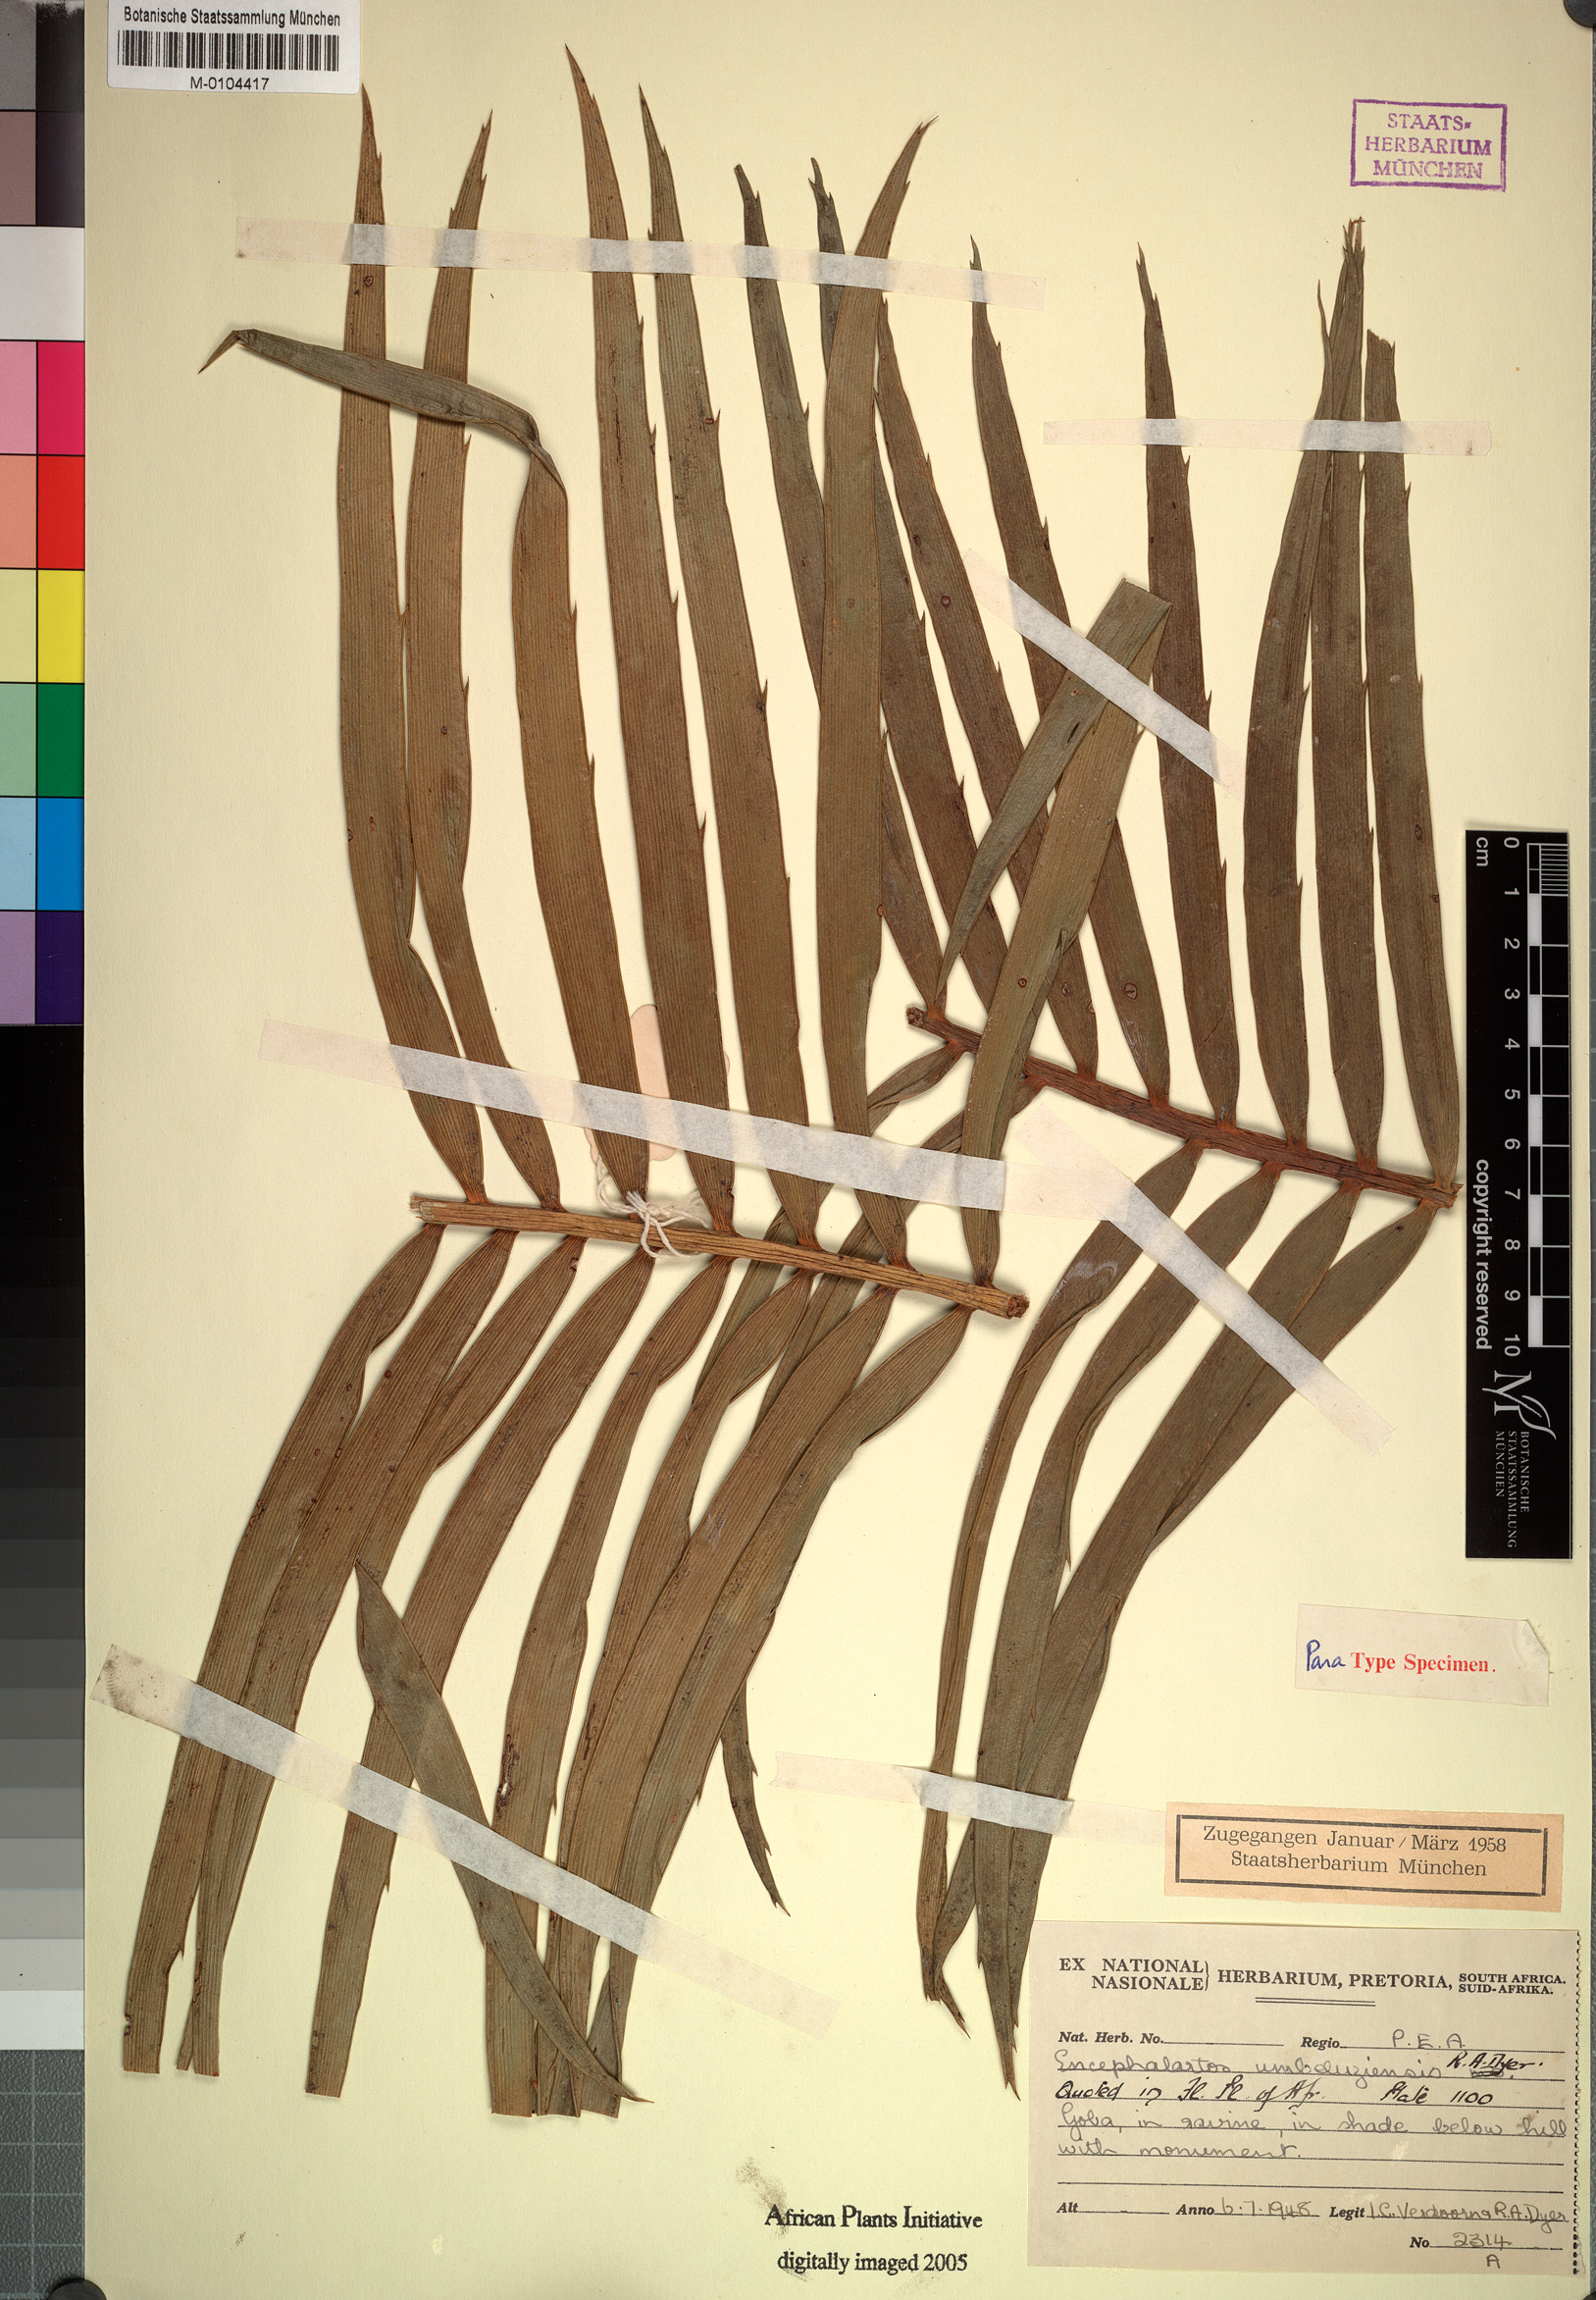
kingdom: Plantae
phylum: Tracheophyta
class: Cycadopsida
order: Cycadales
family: Zamiaceae
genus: Encephalartos
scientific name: Encephalartos umbeluziensis
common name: Umbeluzi cycad
